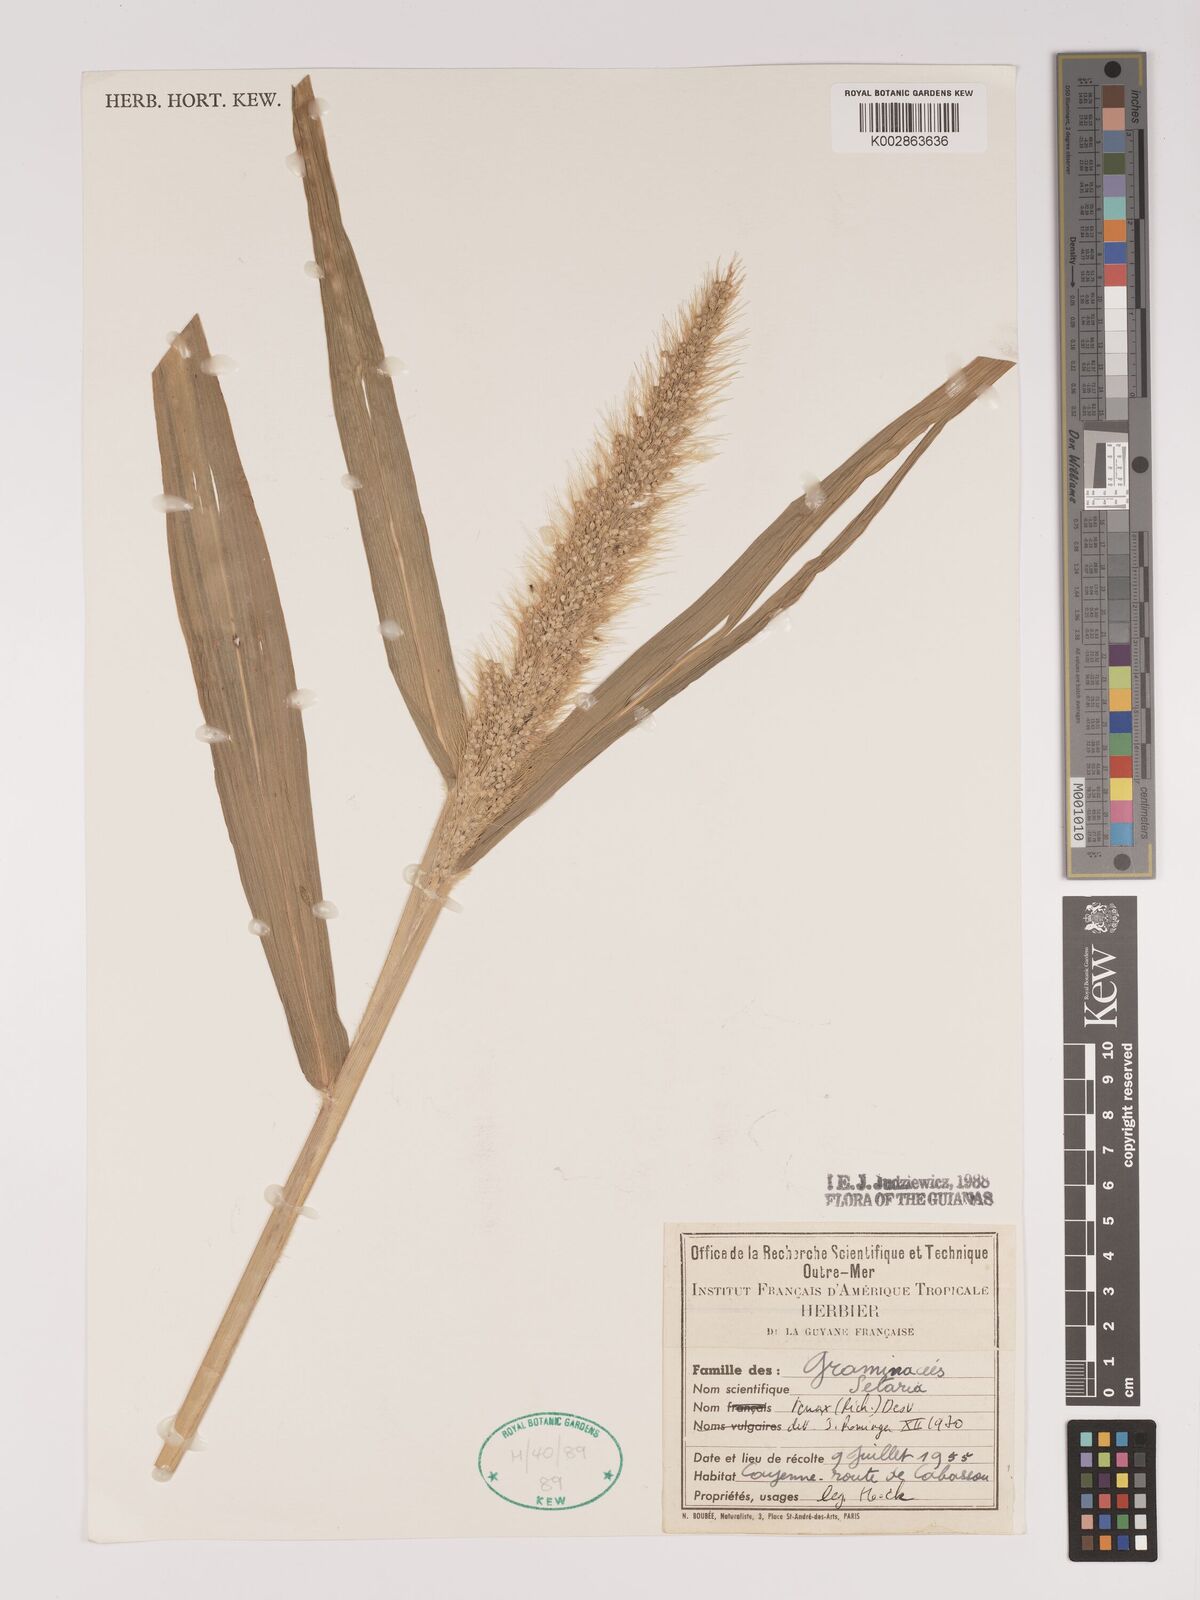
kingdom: Plantae
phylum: Tracheophyta
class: Liliopsida
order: Poales
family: Poaceae
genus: Setaria
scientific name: Setaria tenax
